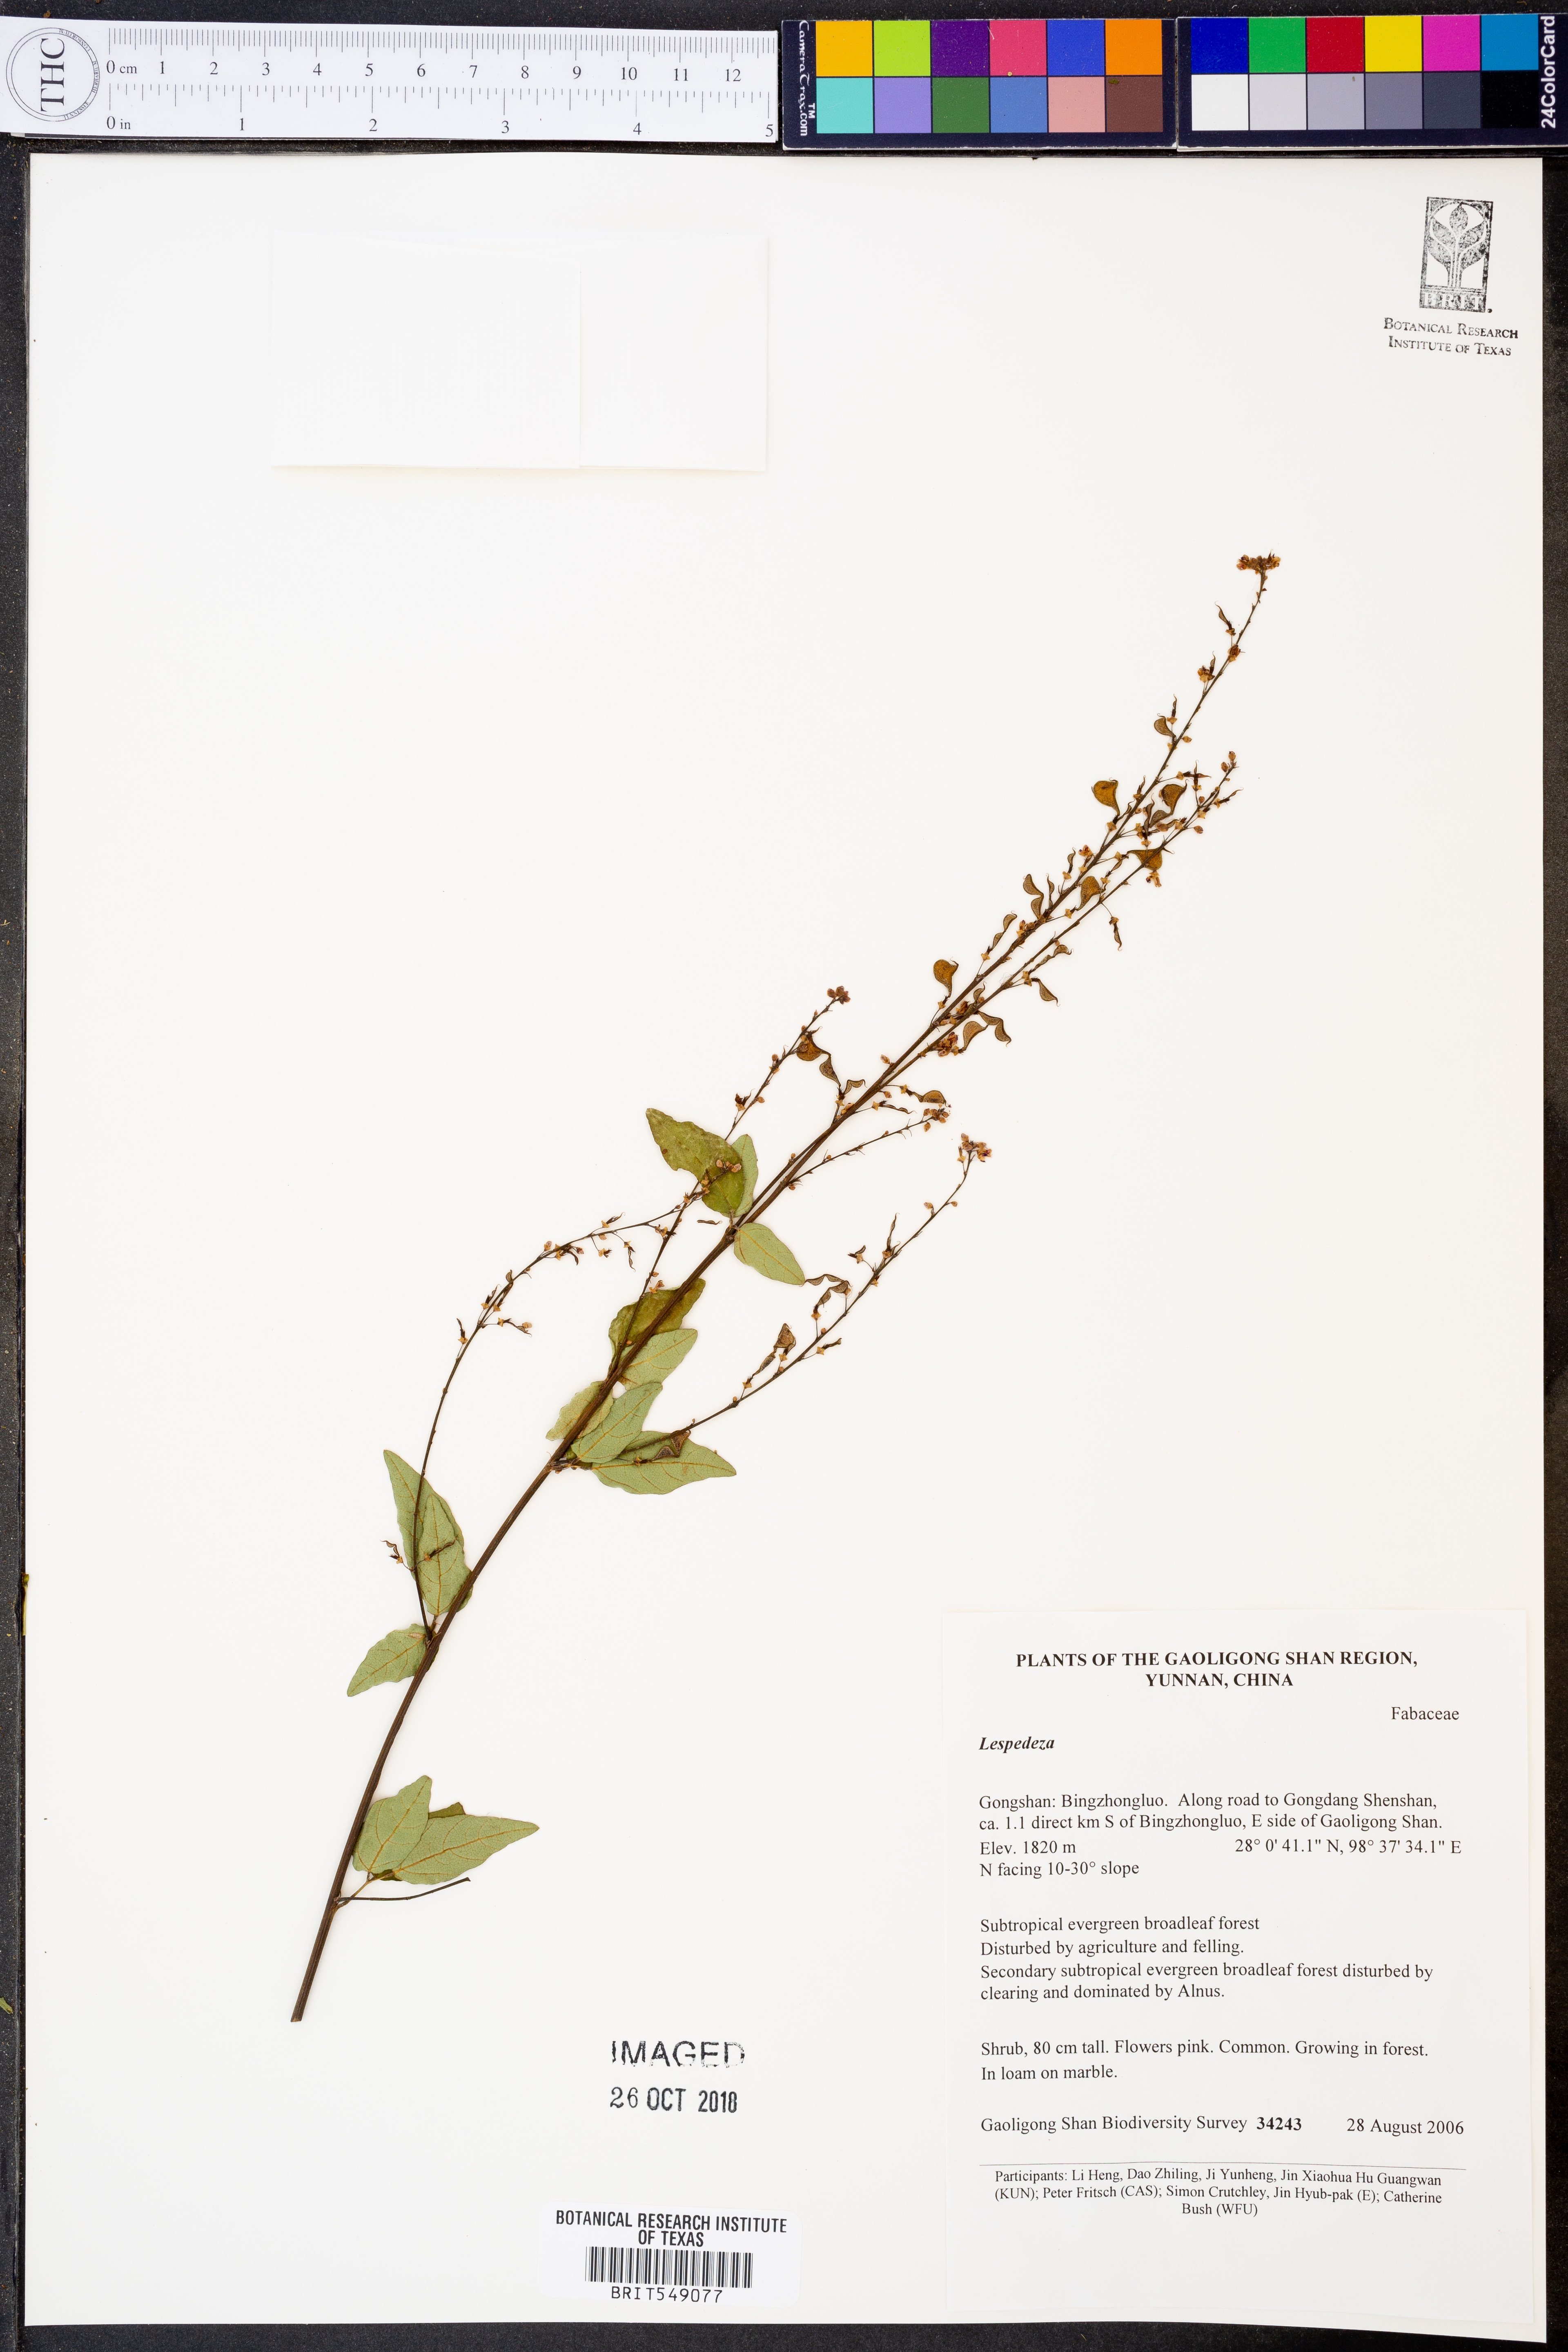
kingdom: Plantae
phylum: Tracheophyta
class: Magnoliopsida
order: Fabales
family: Fabaceae
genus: Lespedeza
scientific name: Lespedeza
